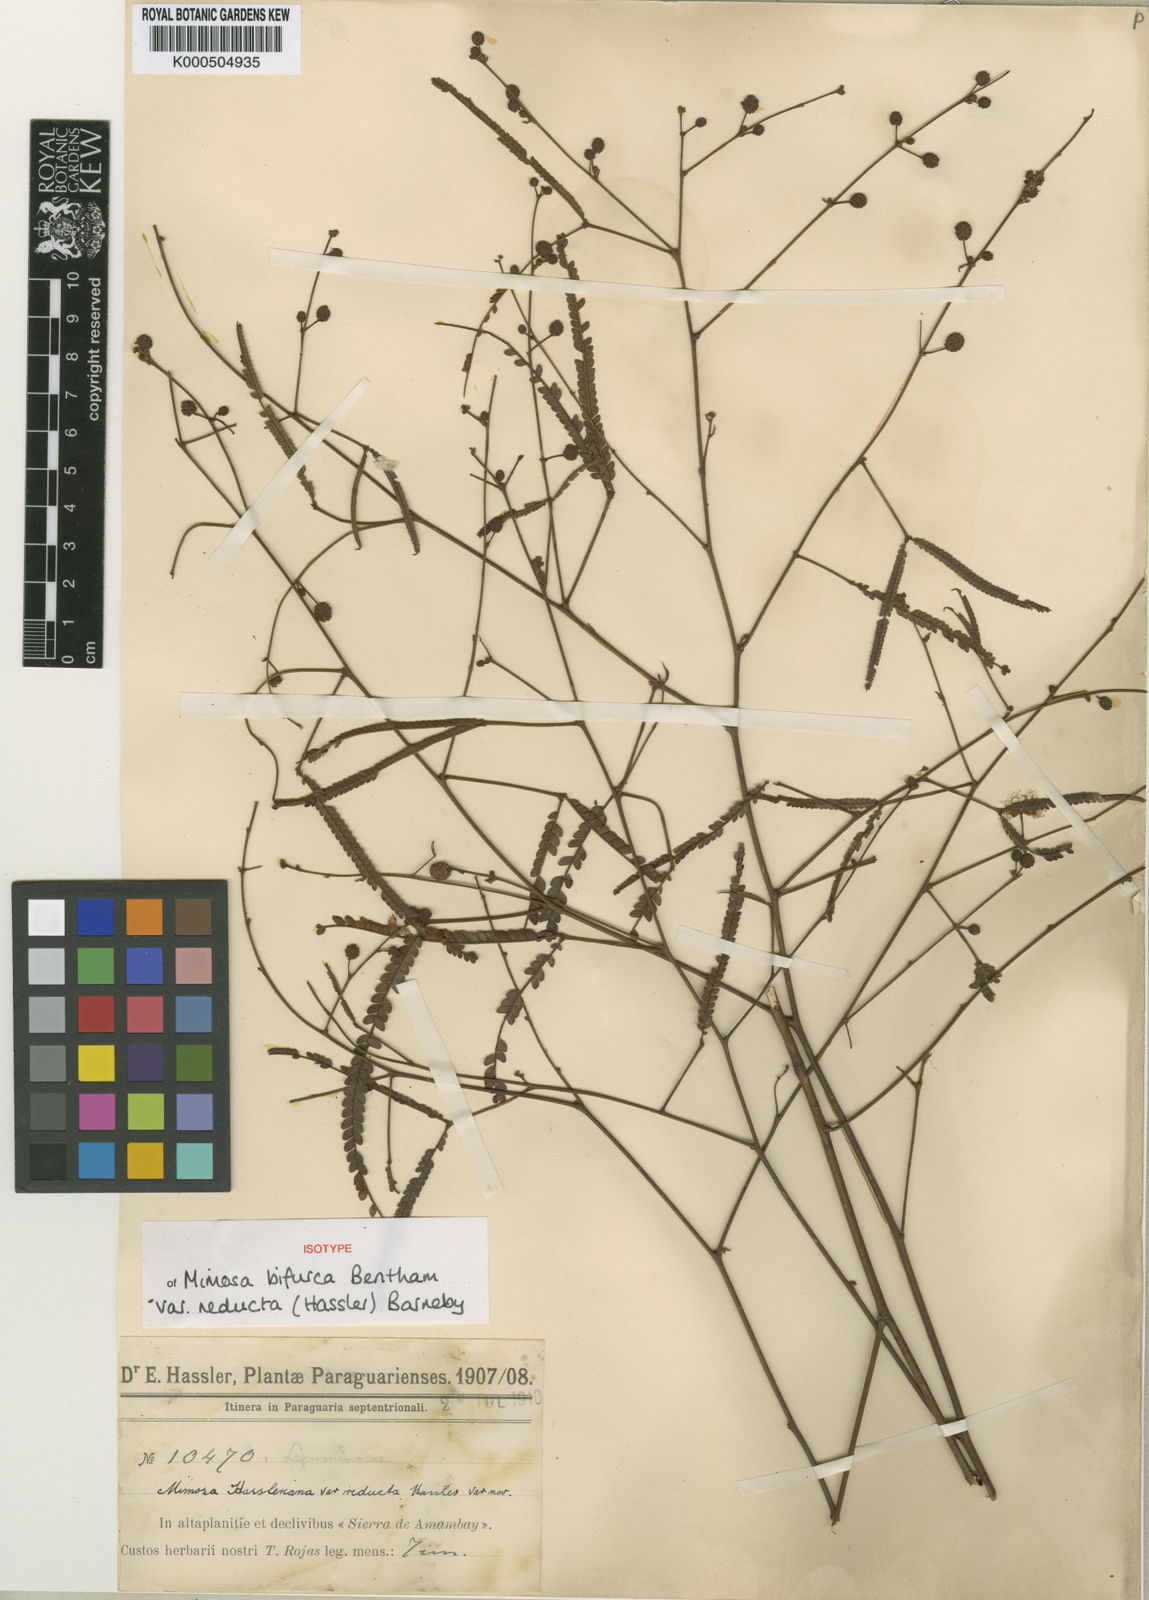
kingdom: Plantae
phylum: Tracheophyta
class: Magnoliopsida
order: Fabales
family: Fabaceae
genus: Mimosa
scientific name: Mimosa bifurca
